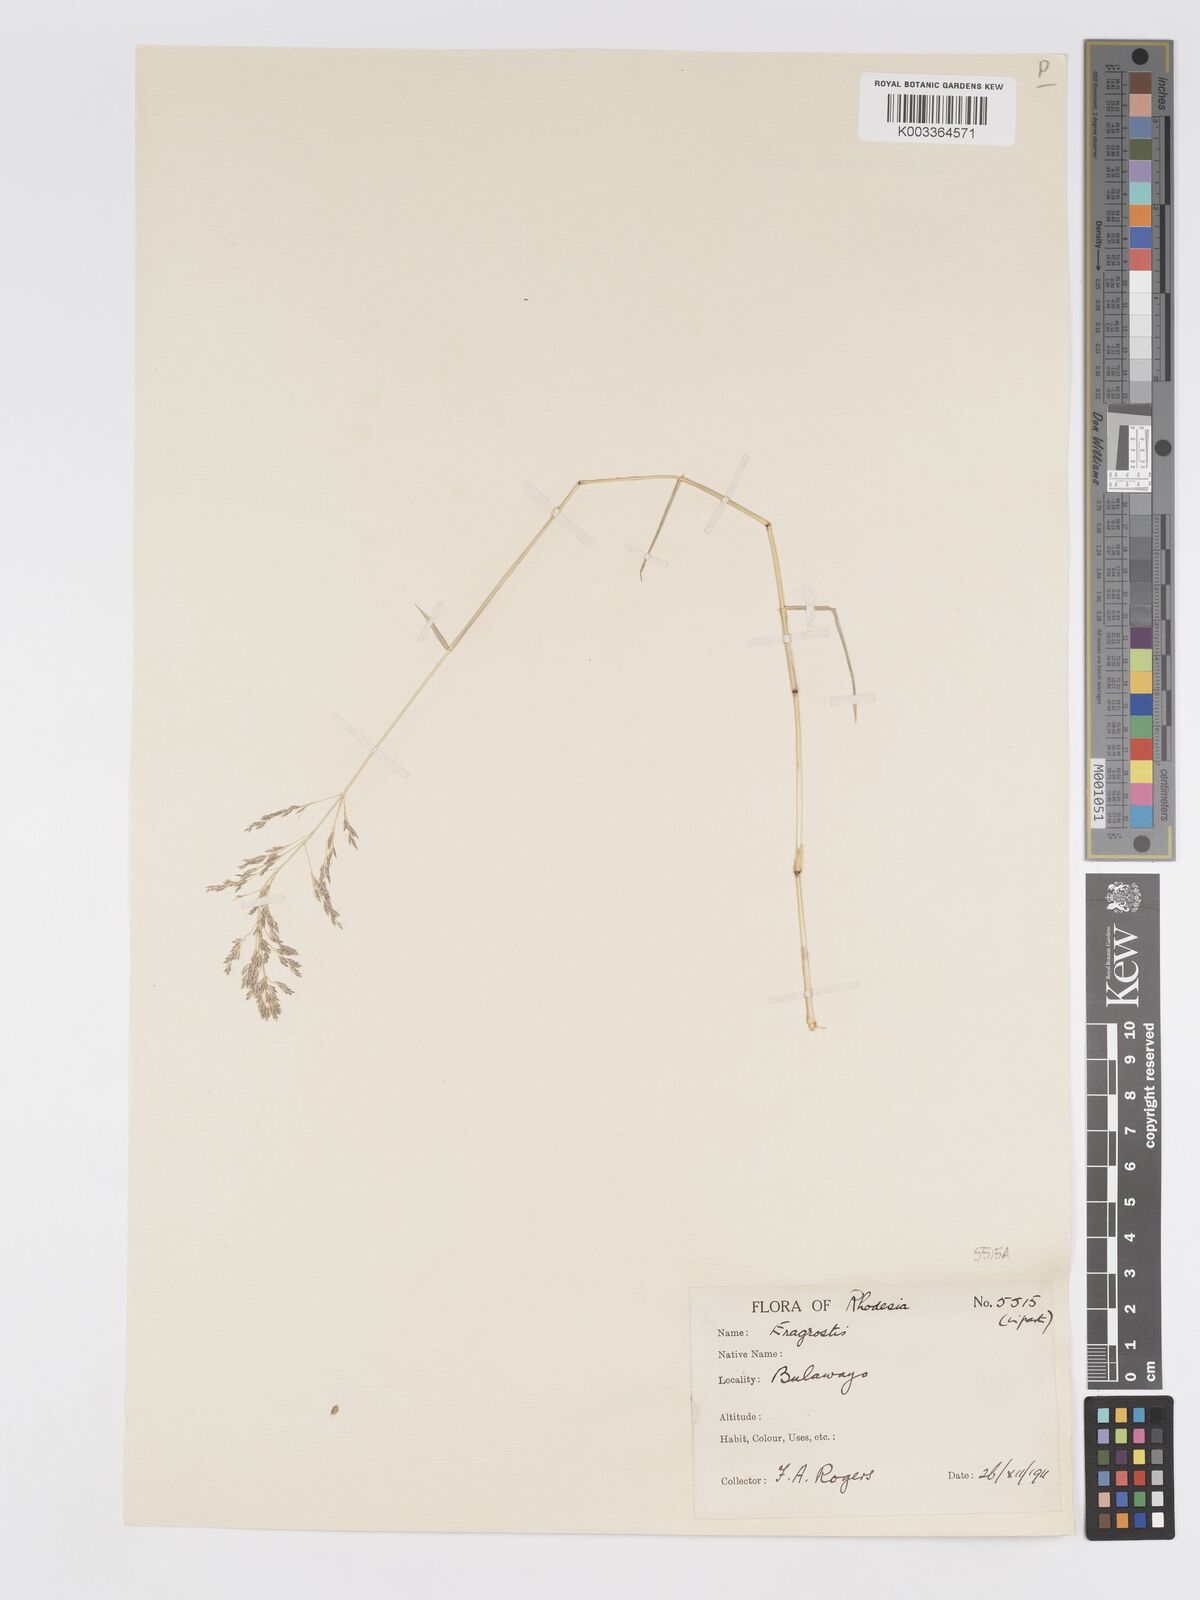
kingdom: Plantae
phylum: Tracheophyta
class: Liliopsida
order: Poales
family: Poaceae
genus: Eragrostis
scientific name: Eragrostis patentipilosa
